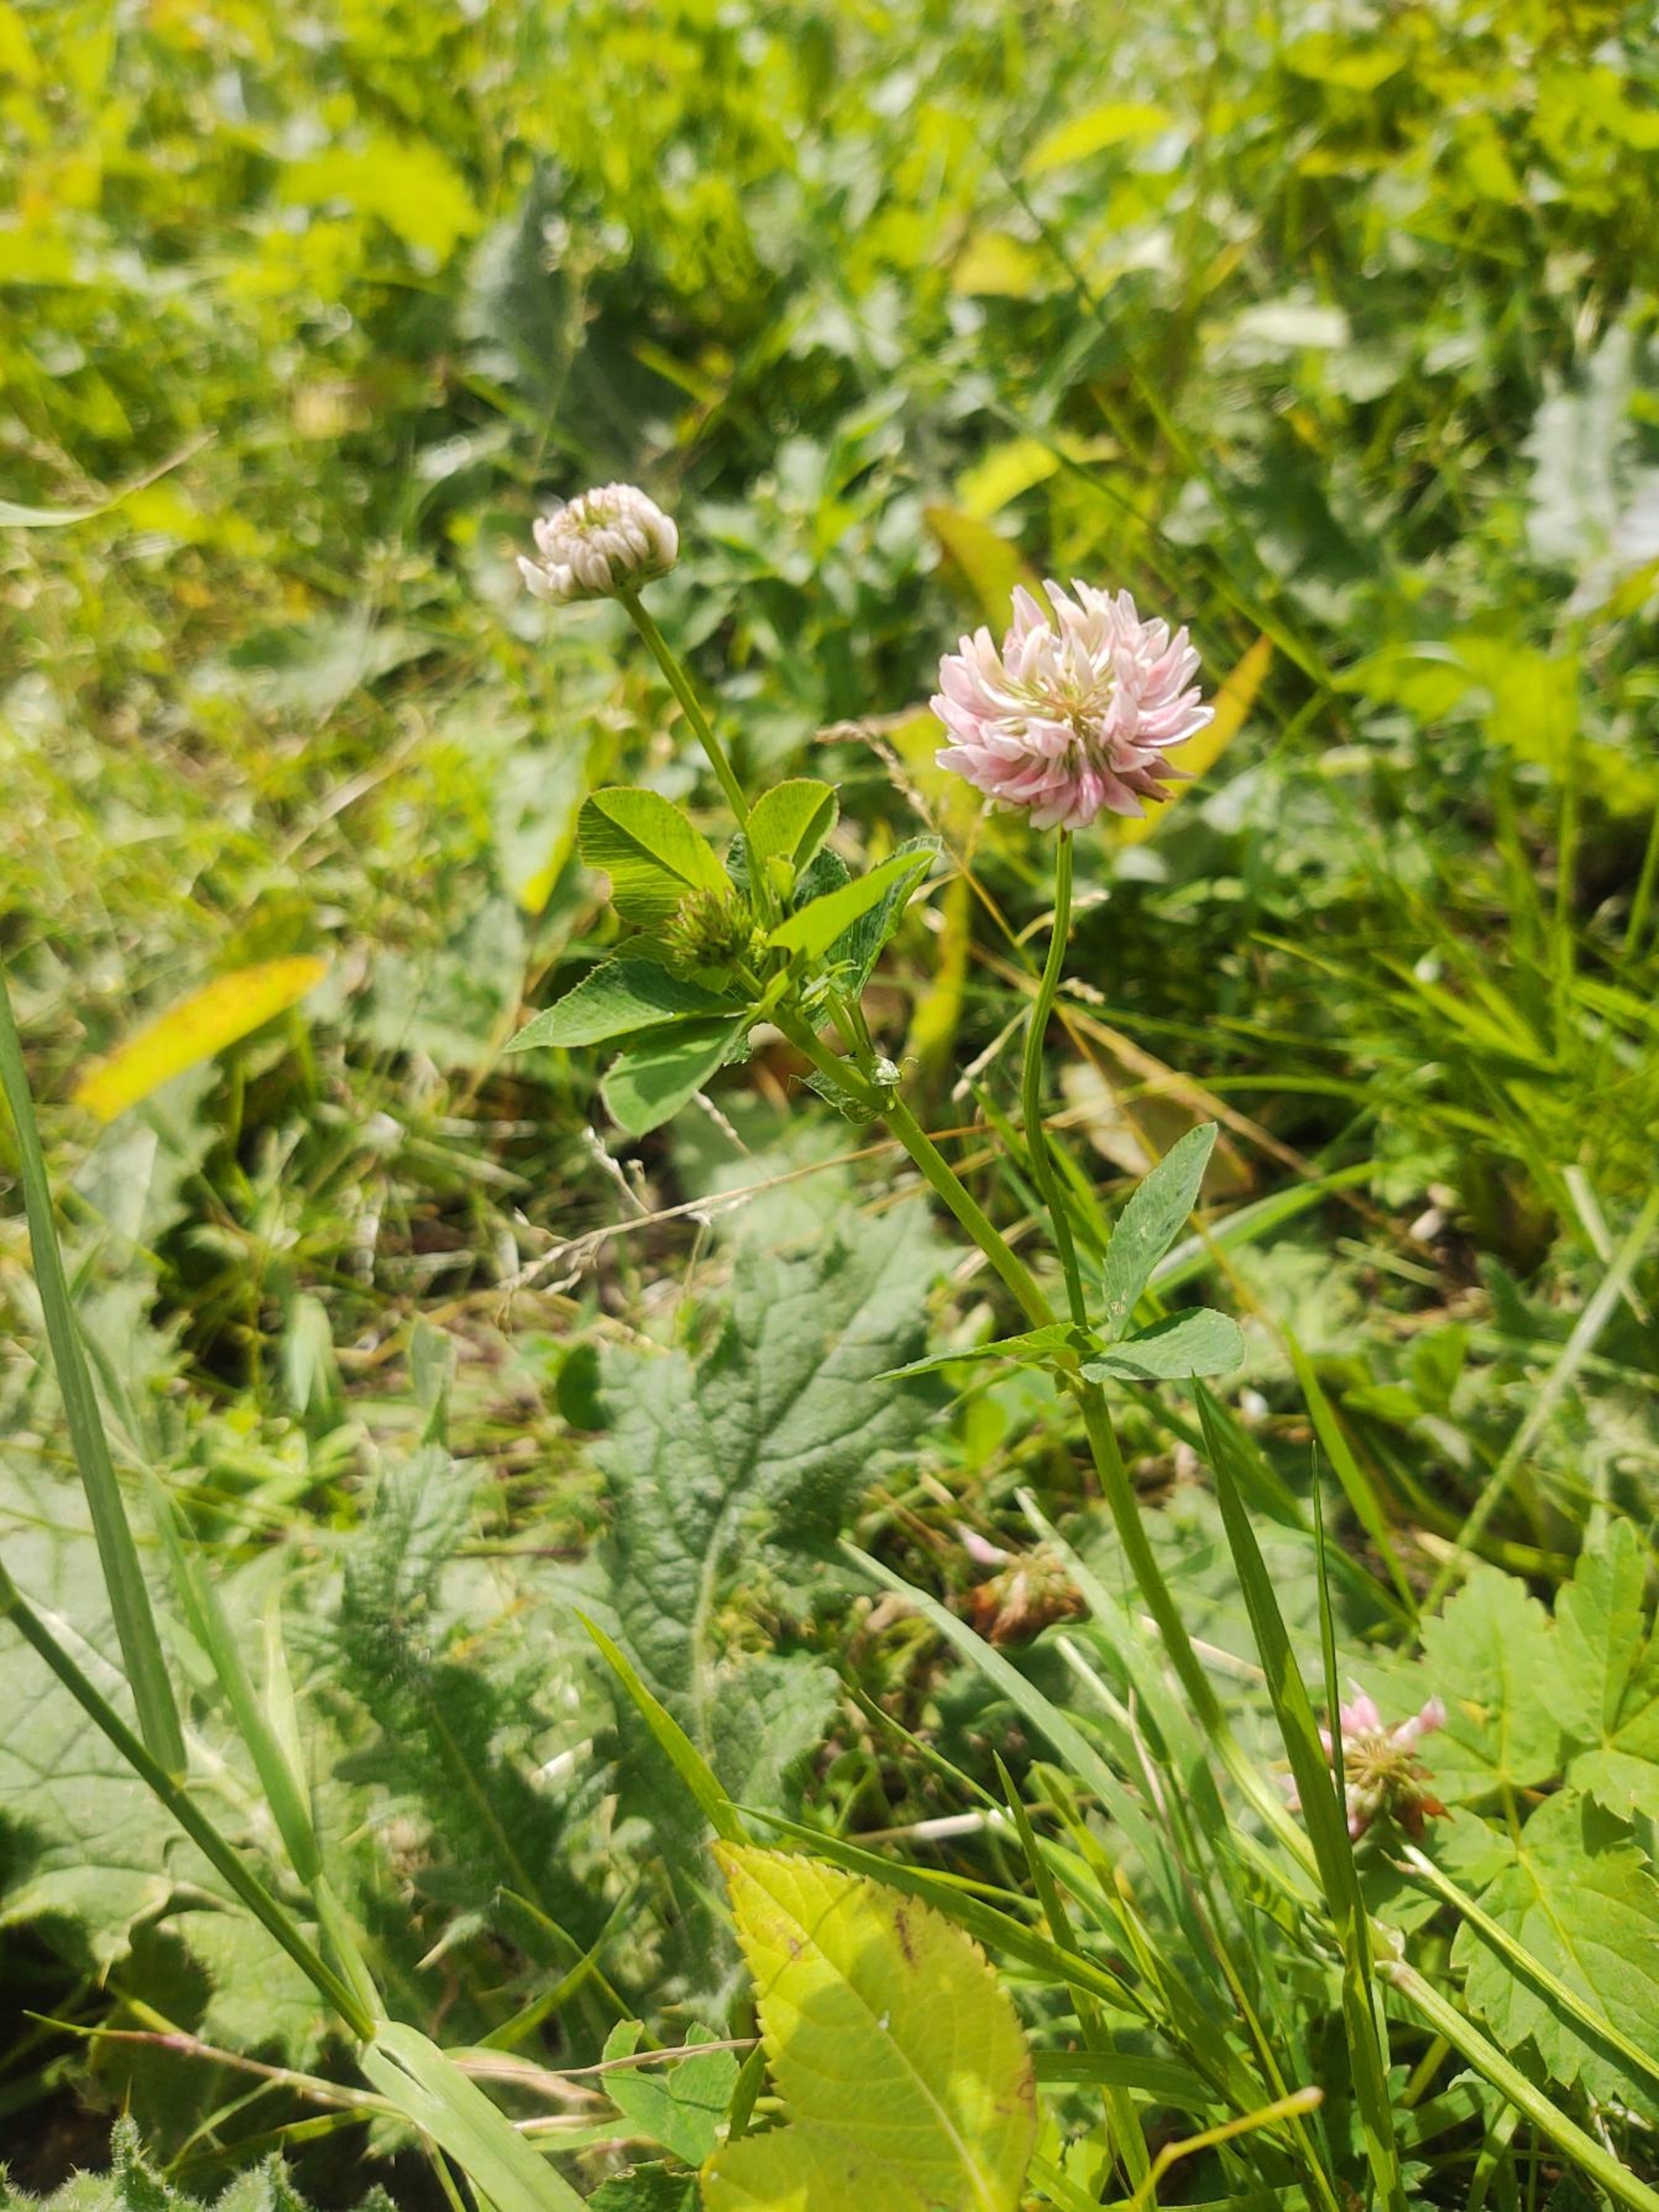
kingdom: Plantae
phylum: Tracheophyta
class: Magnoliopsida
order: Fabales
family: Fabaceae
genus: Trifolium
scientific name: Trifolium hybridum
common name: Alsike-kløver
